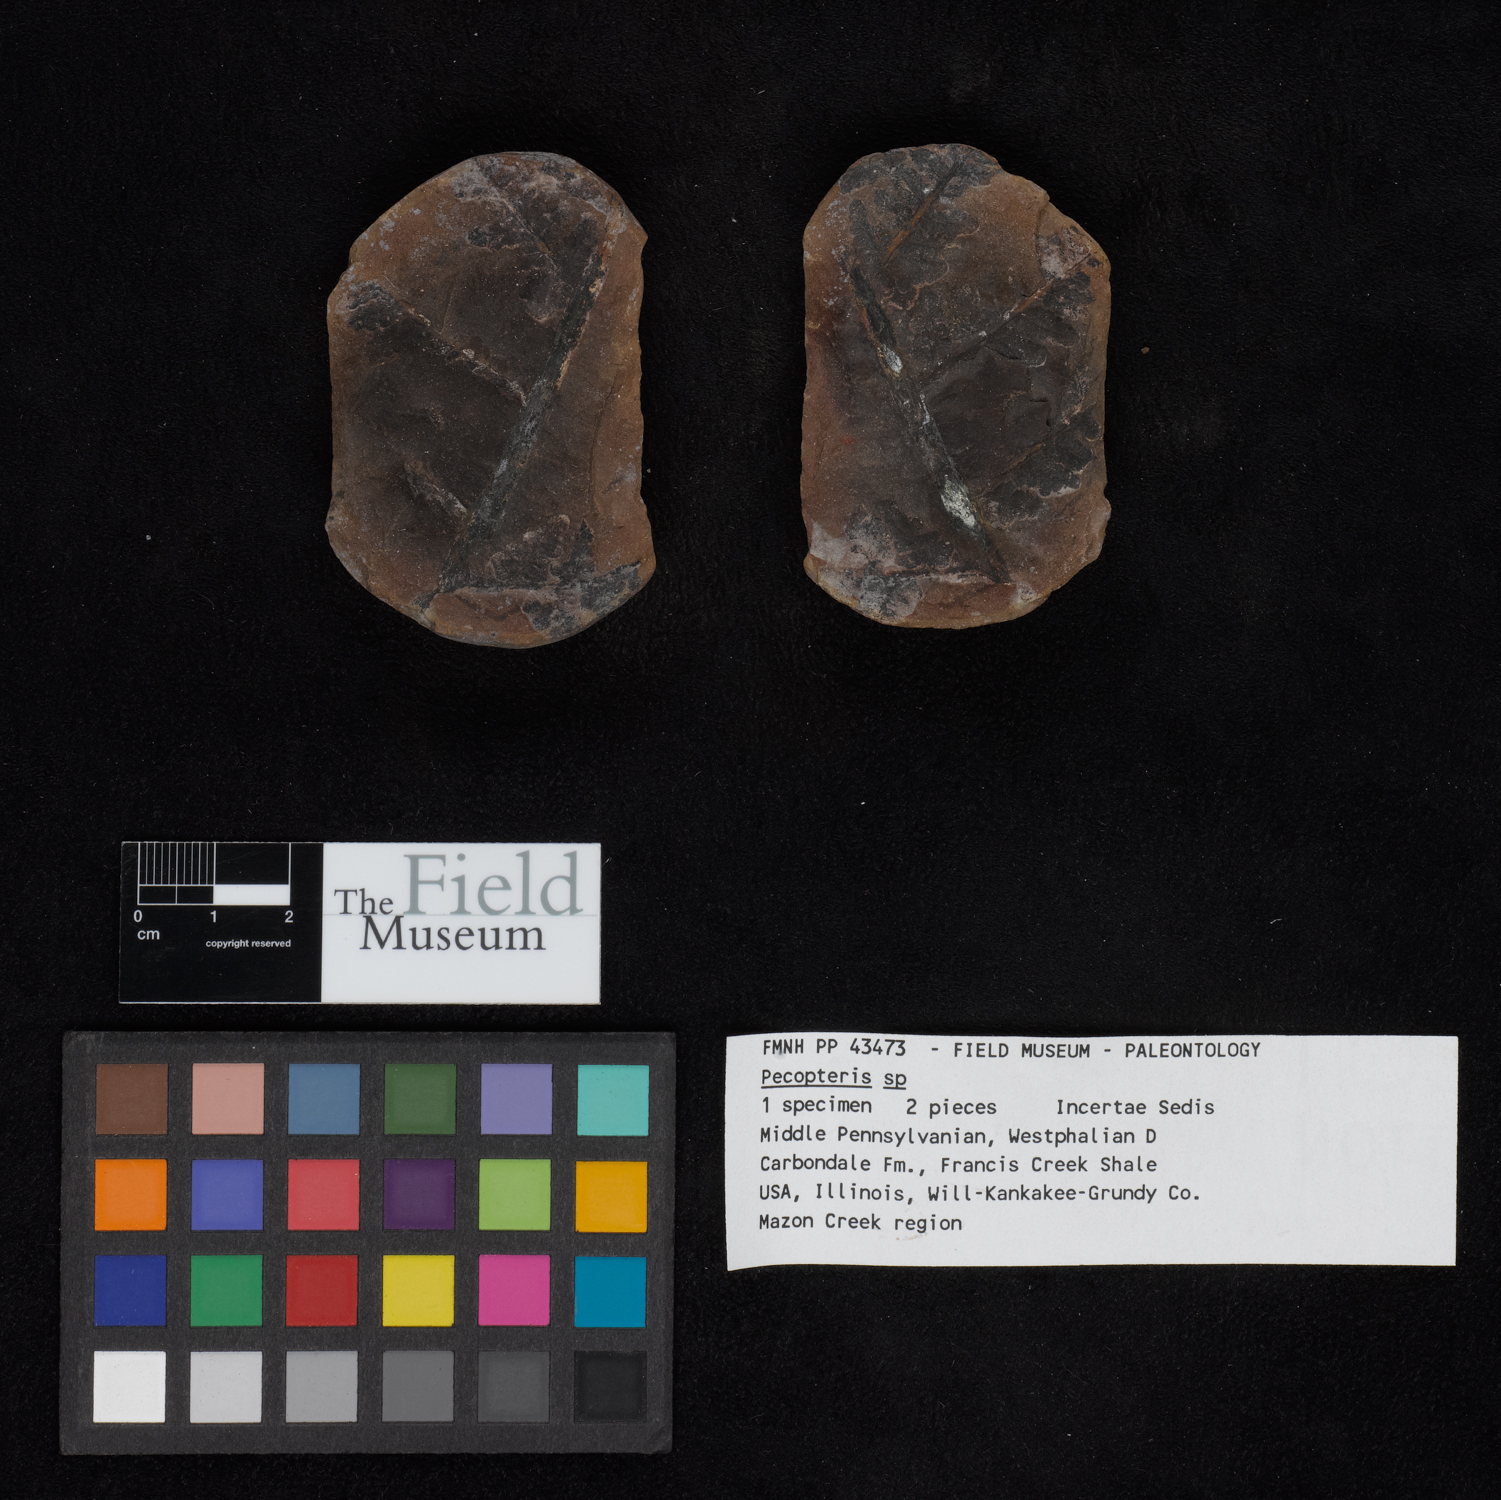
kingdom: Plantae
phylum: Tracheophyta
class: Polypodiopsida
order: Marattiales
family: Asterothecaceae
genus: Pecopteris
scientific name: Pecopteris
